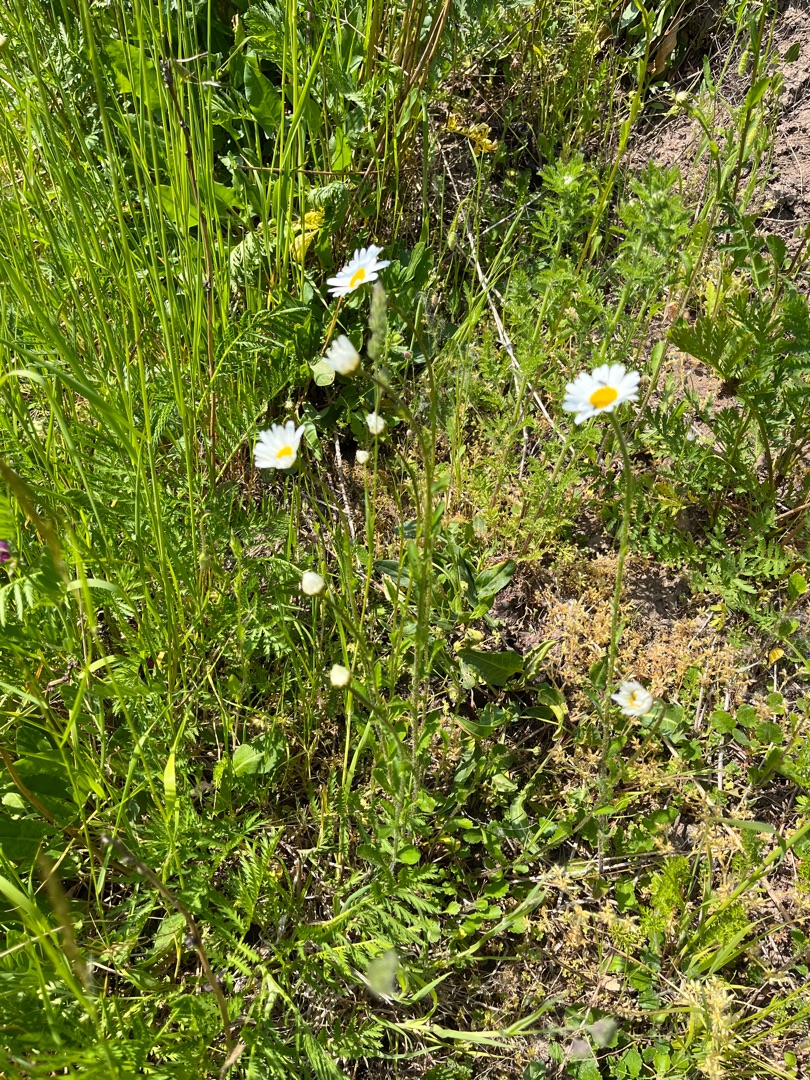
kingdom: Plantae
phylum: Tracheophyta
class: Magnoliopsida
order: Asterales
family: Asteraceae
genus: Leucanthemum
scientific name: Leucanthemum vulgare
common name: Hvid okseøje
